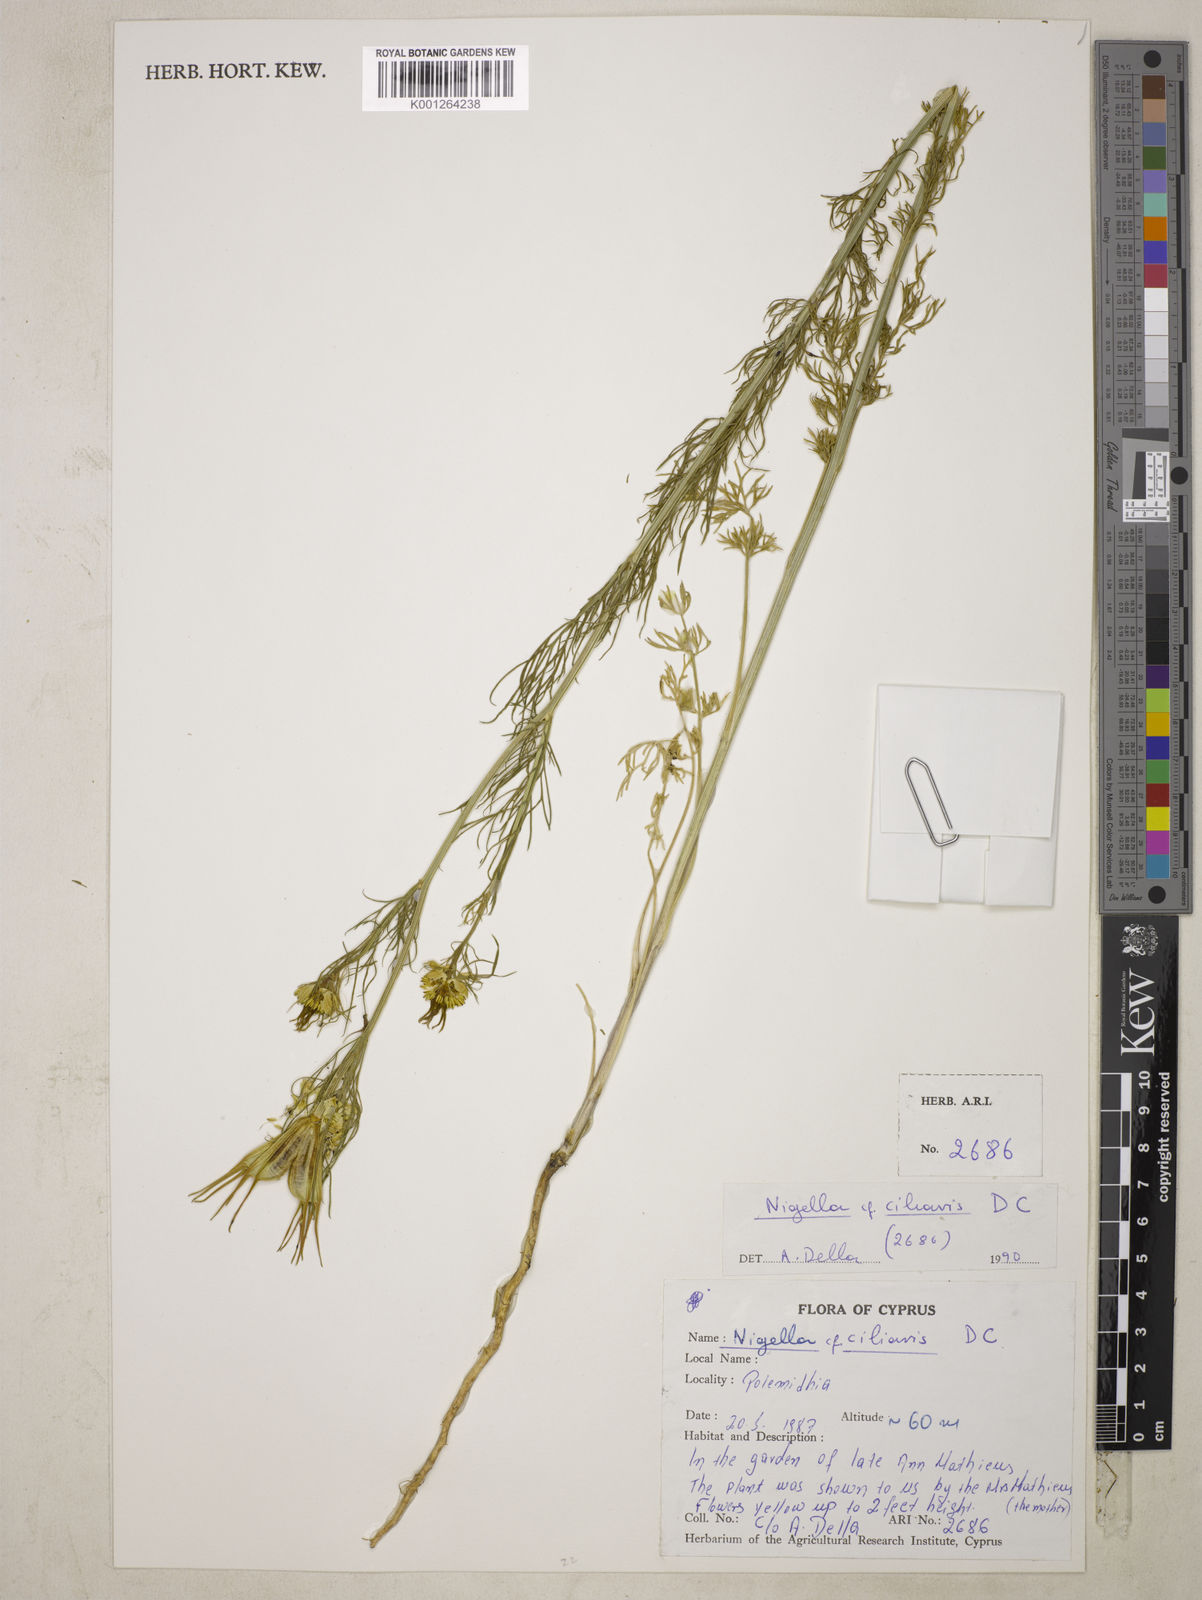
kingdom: Plantae
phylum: Tracheophyta
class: Magnoliopsida
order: Ranunculales
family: Ranunculaceae
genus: Nigella
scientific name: Nigella ciliaris
